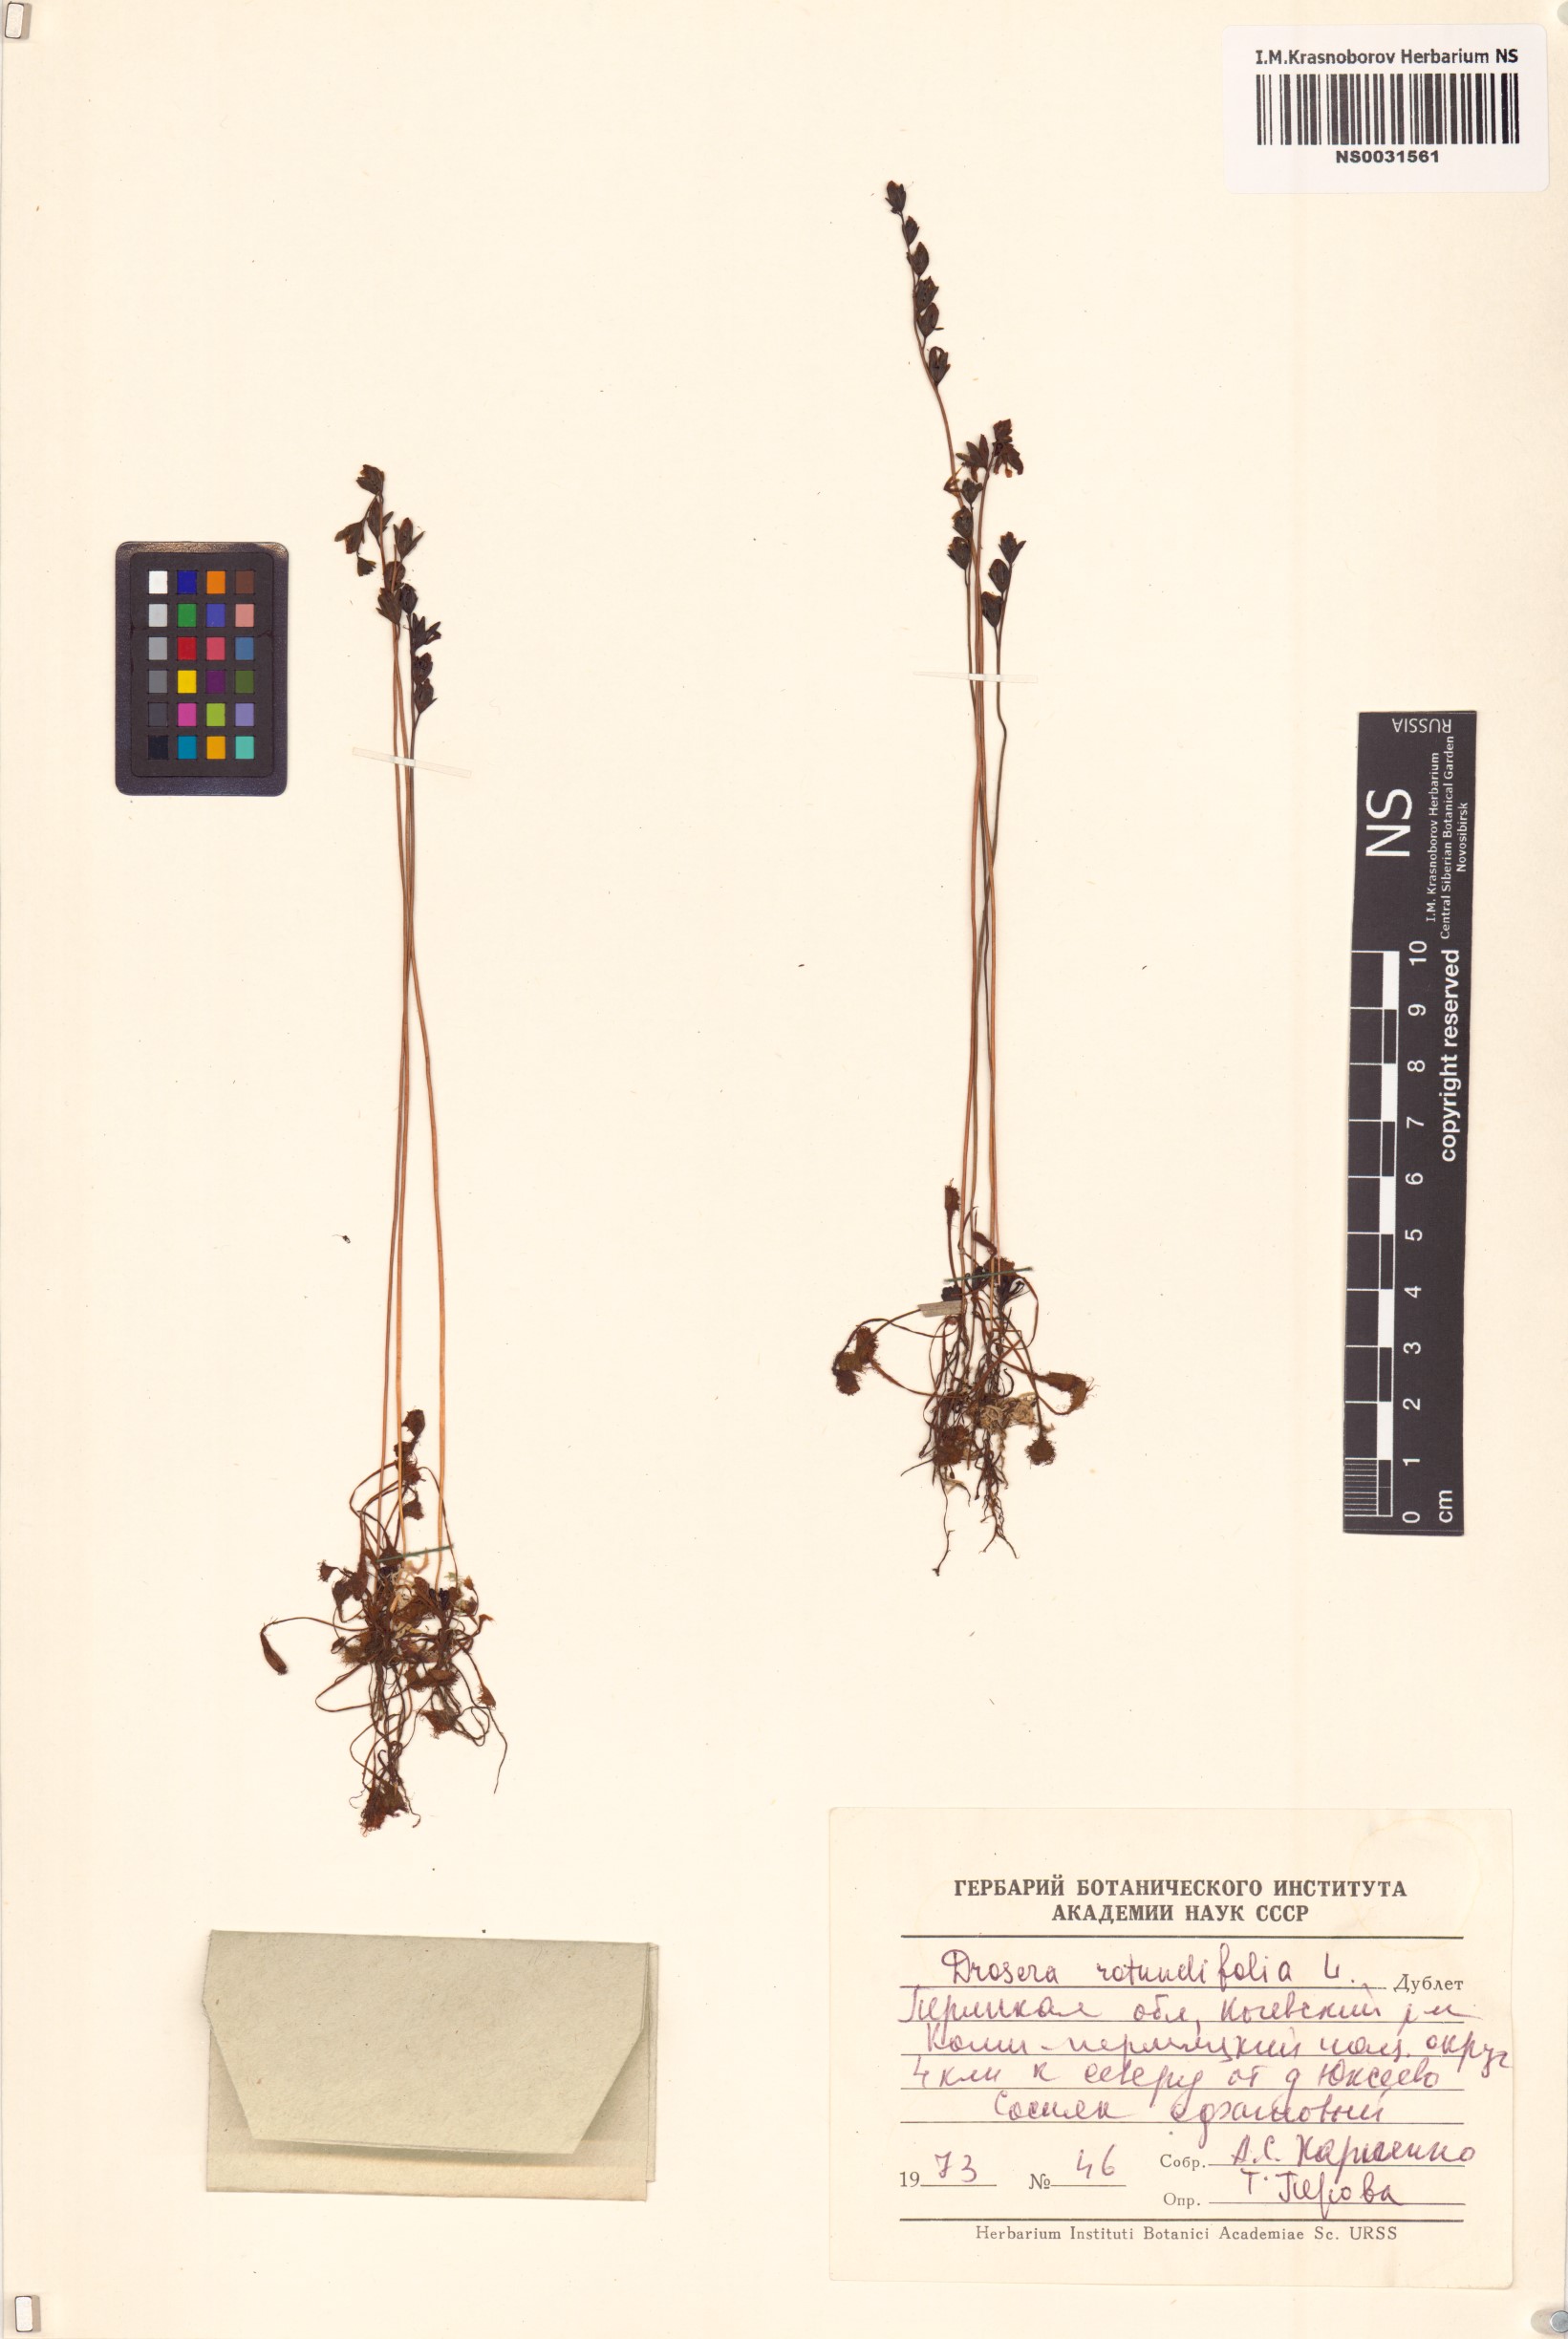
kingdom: Plantae
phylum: Tracheophyta
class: Magnoliopsida
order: Caryophyllales
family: Droseraceae
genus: Drosera
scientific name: Drosera rotundifolia
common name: Round-leaved sundew
